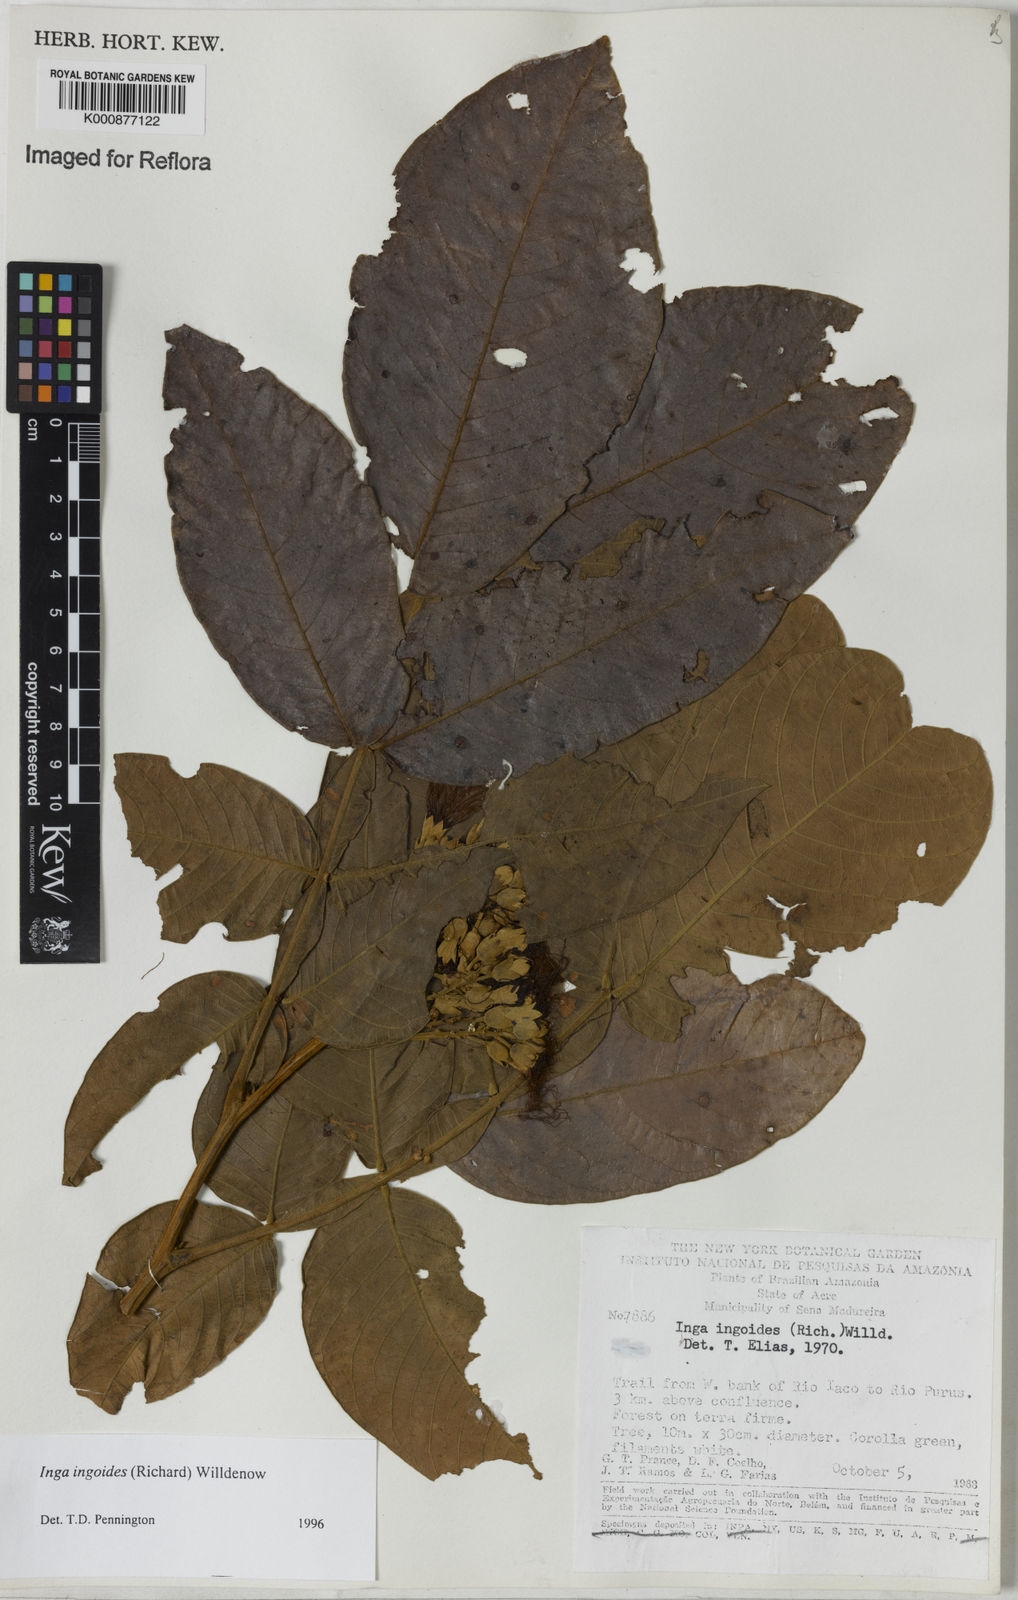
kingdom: Plantae
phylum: Tracheophyta
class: Magnoliopsida
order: Fabales
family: Fabaceae
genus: Inga
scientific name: Inga ingoides
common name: Spanish ash
